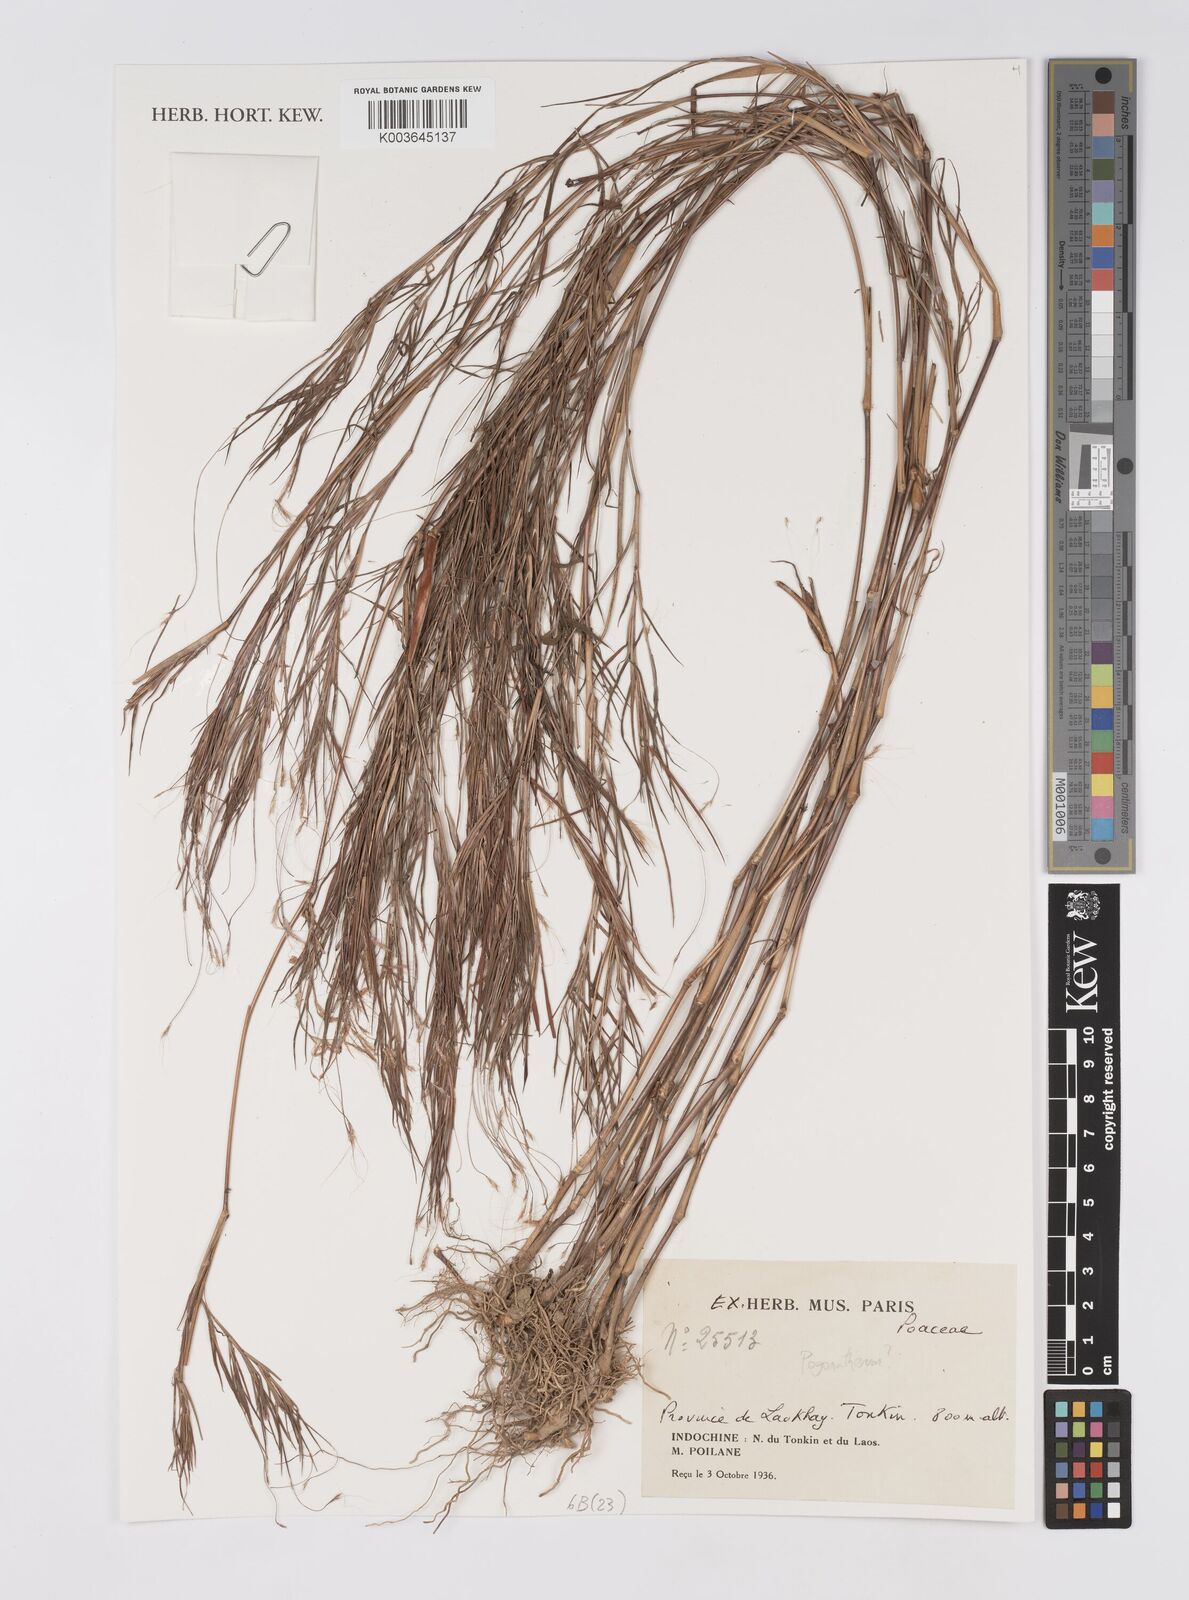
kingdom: Plantae
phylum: Tracheophyta
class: Liliopsida
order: Poales
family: Poaceae
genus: Pogonatherum
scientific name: Pogonatherum
